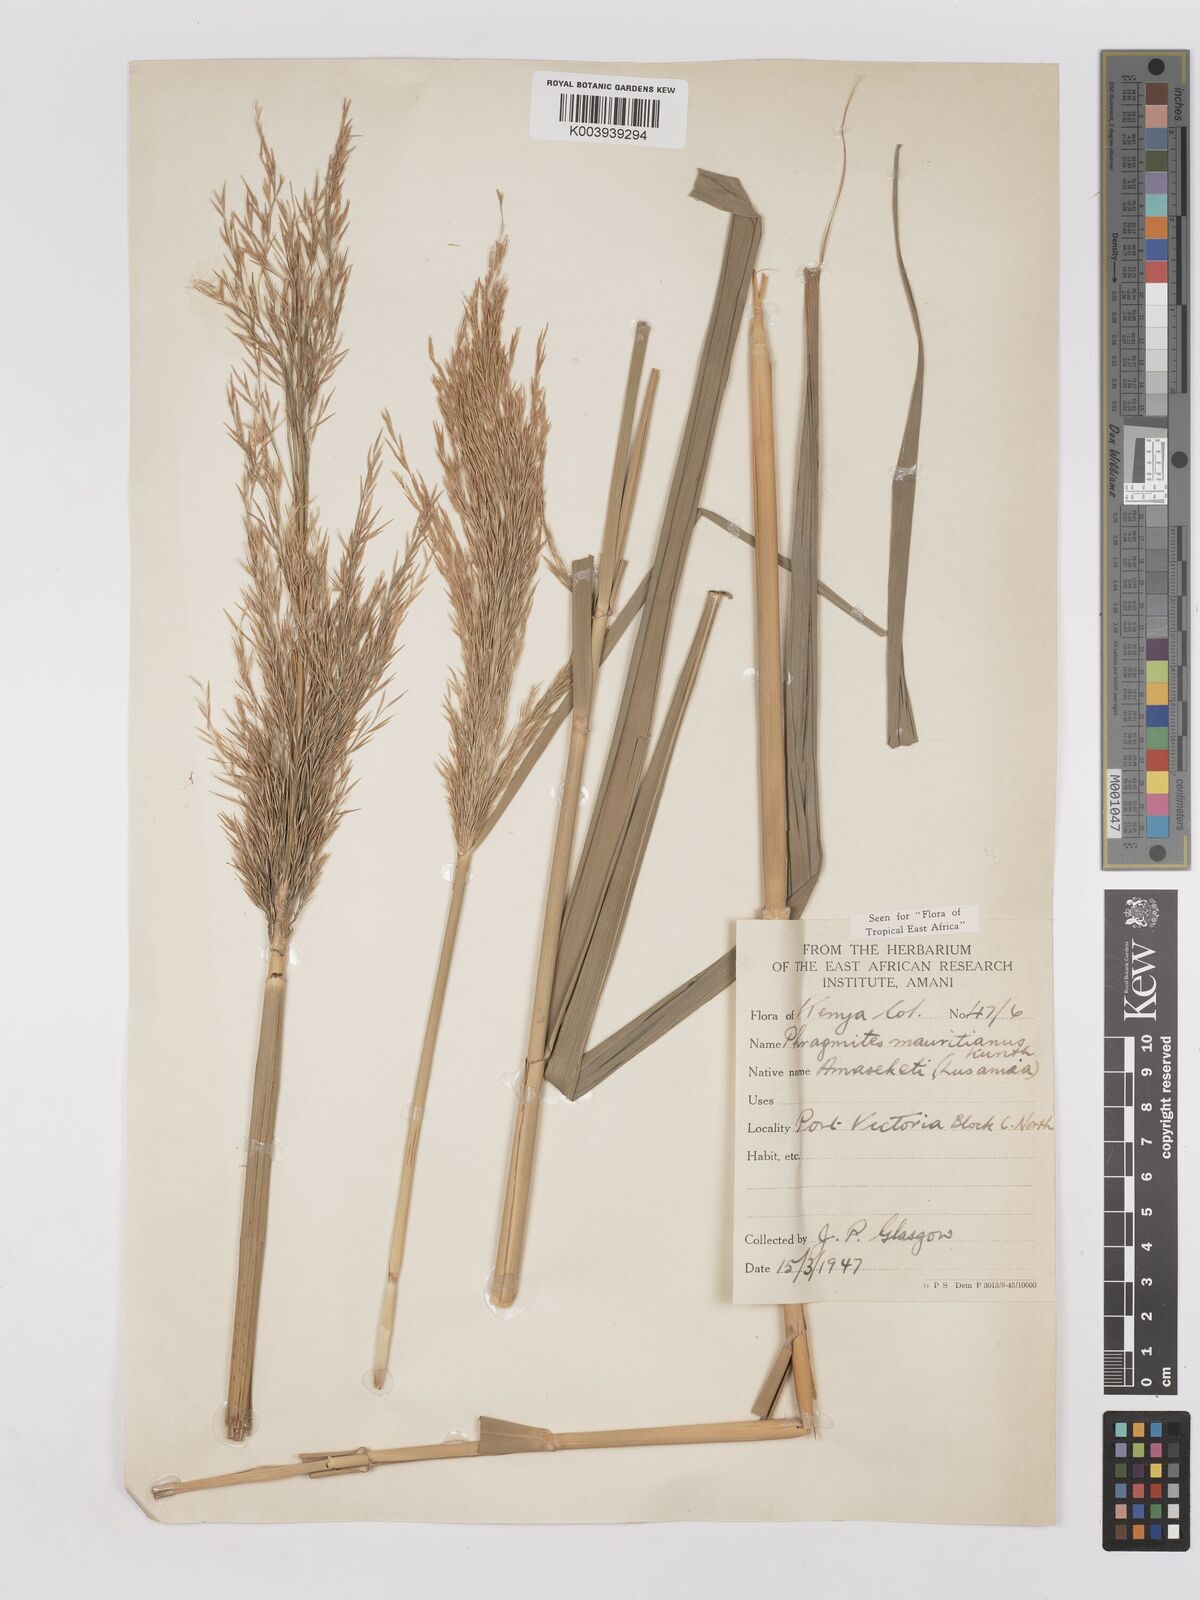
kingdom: Plantae
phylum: Tracheophyta
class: Liliopsida
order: Poales
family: Poaceae
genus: Phragmites
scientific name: Phragmites mauritianus
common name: Reed grass
